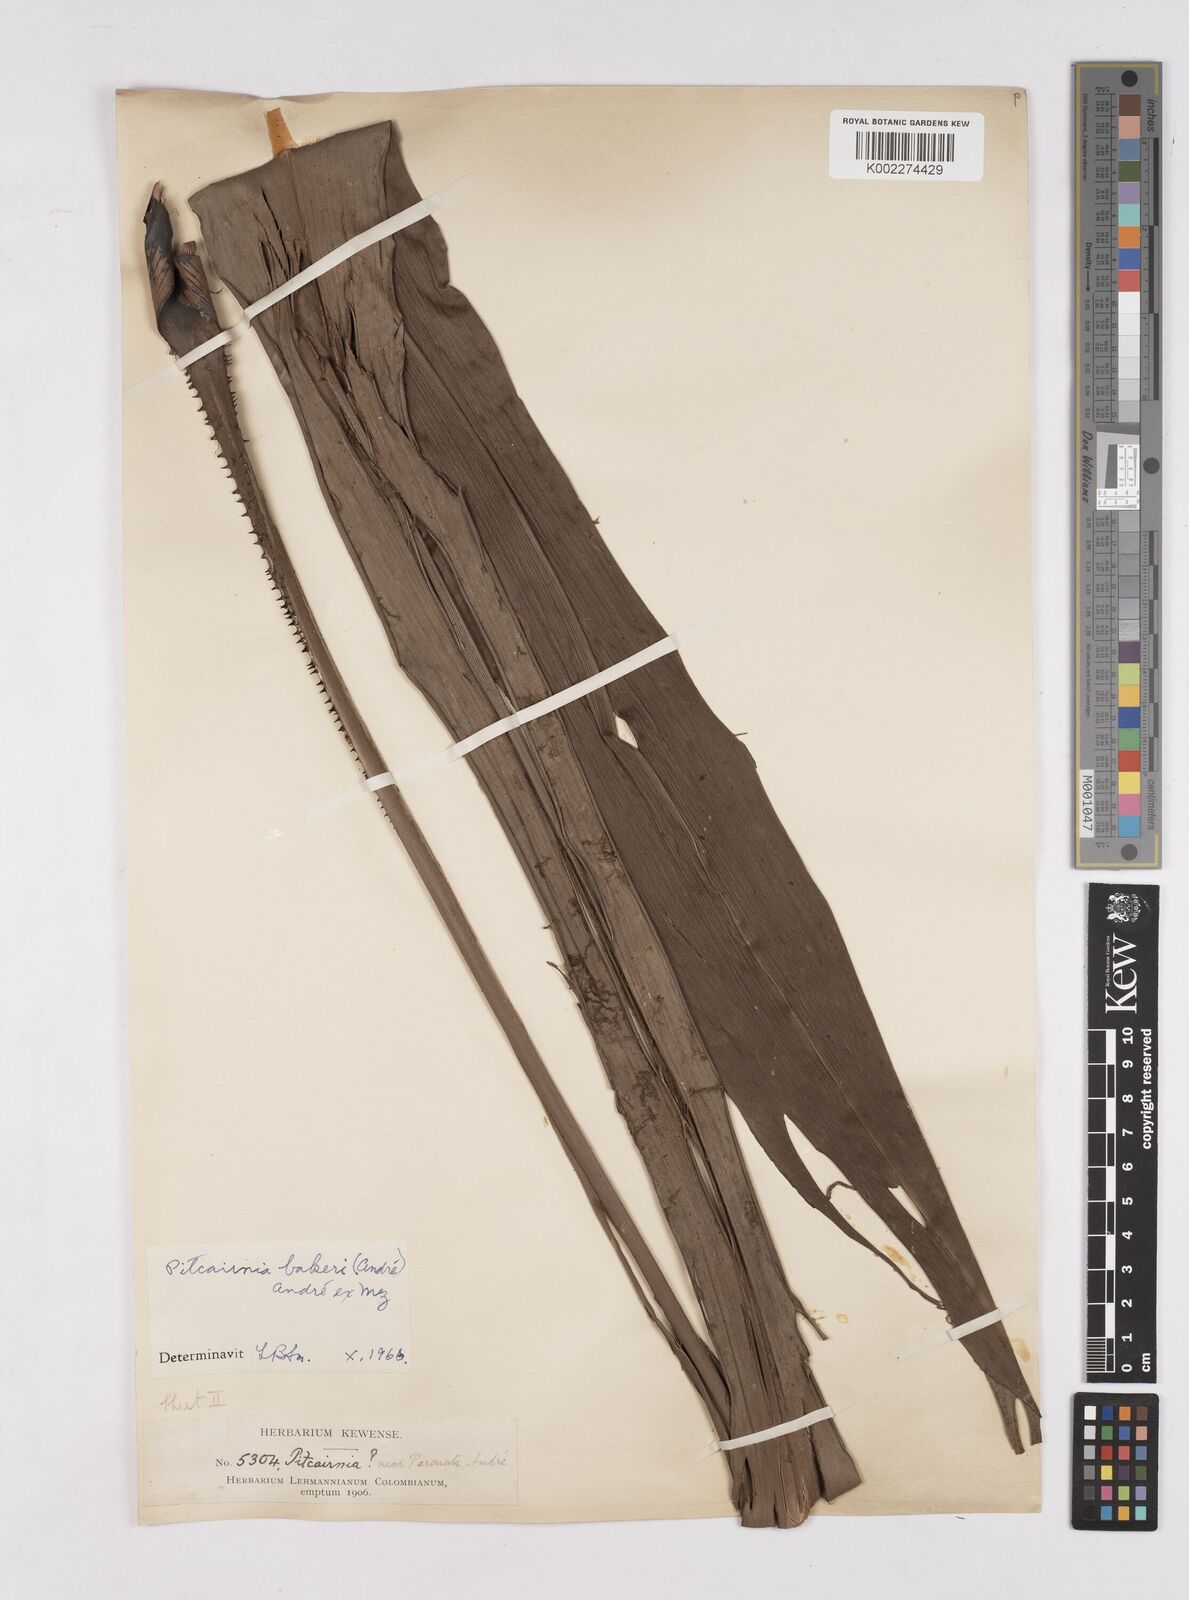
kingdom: Plantae
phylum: Tracheophyta
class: Liliopsida
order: Poales
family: Bromeliaceae
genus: Pitcairnia
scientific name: Pitcairnia bakeri
